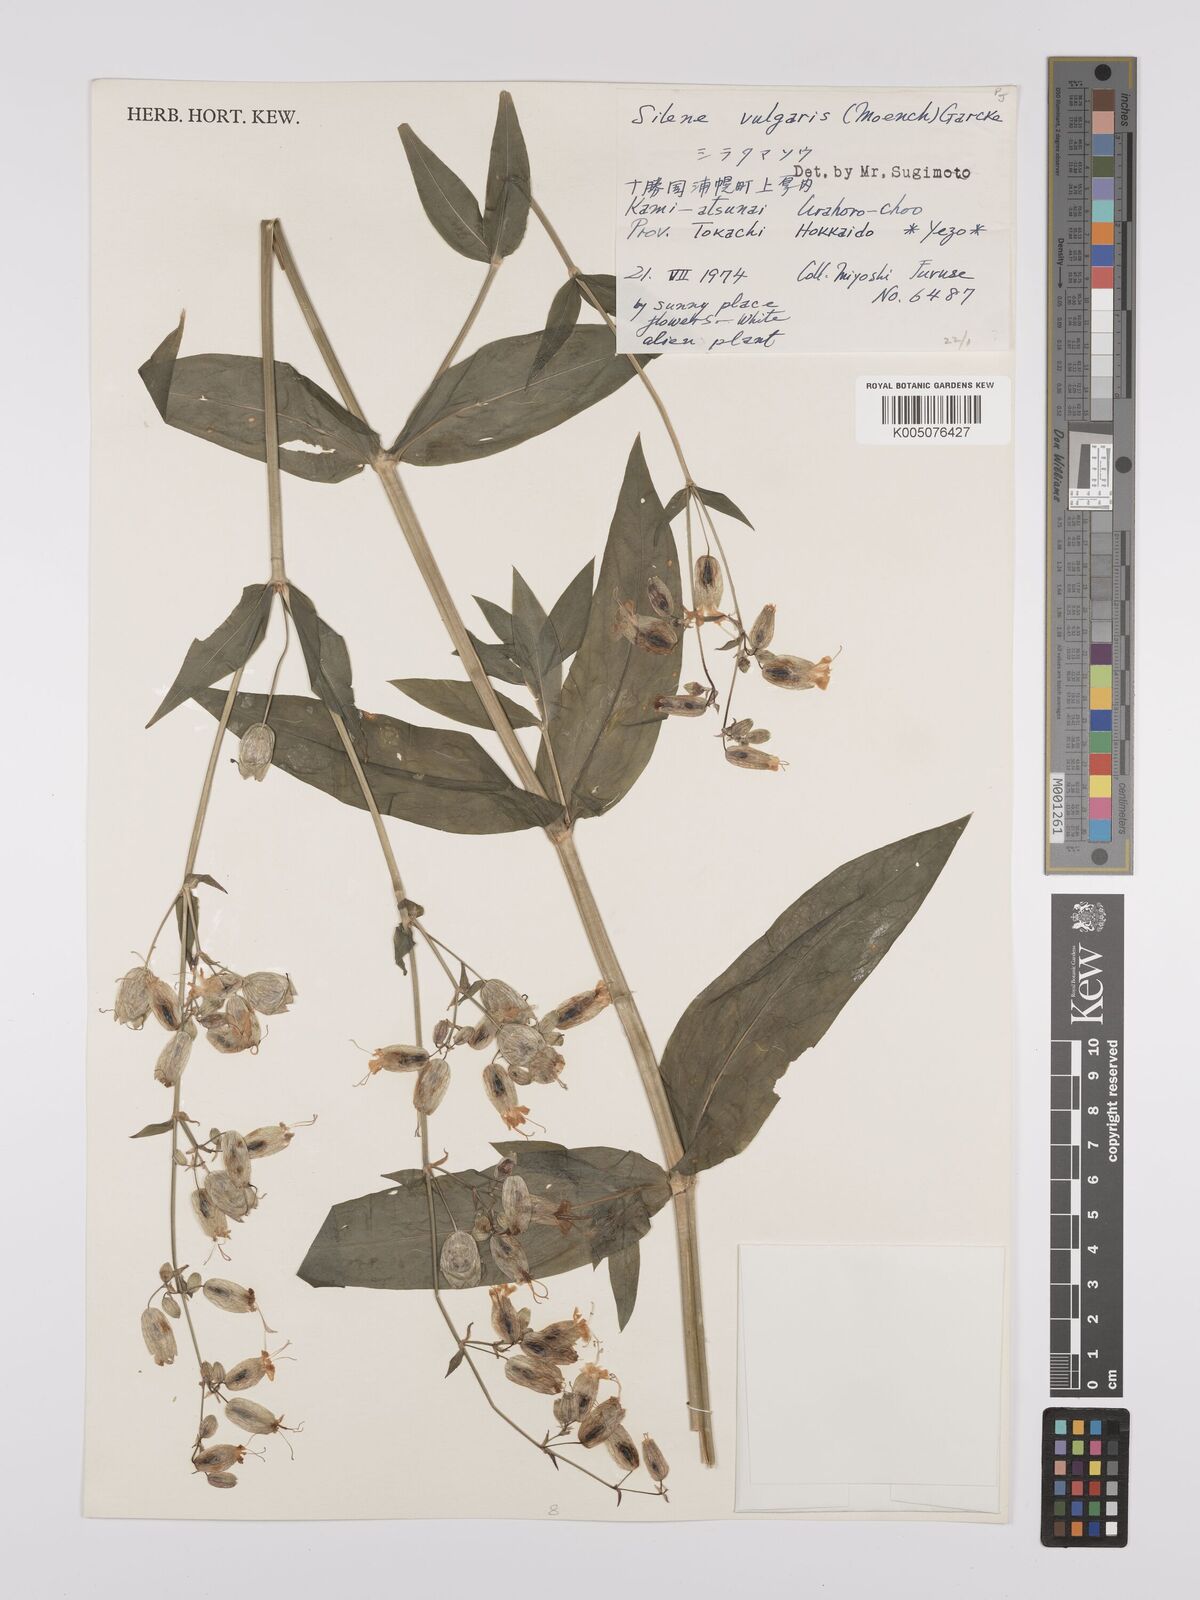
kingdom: Plantae
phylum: Tracheophyta
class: Magnoliopsida
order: Caryophyllales
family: Caryophyllaceae
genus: Silene
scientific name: Silene vulgaris
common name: Bladder campion
